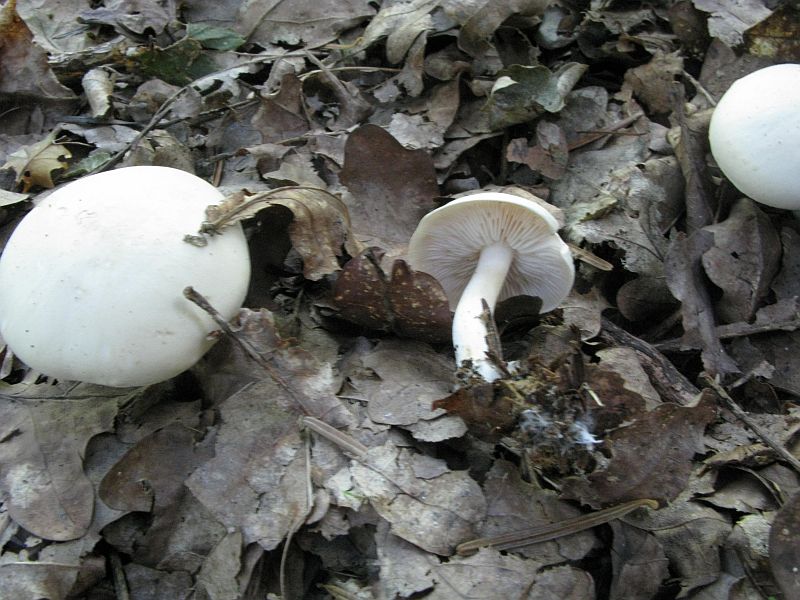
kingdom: Fungi
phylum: Basidiomycota
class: Agaricomycetes
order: Agaricales
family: Tricholomataceae
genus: Tricholoma
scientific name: Tricholoma album
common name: honning-ridderhat
